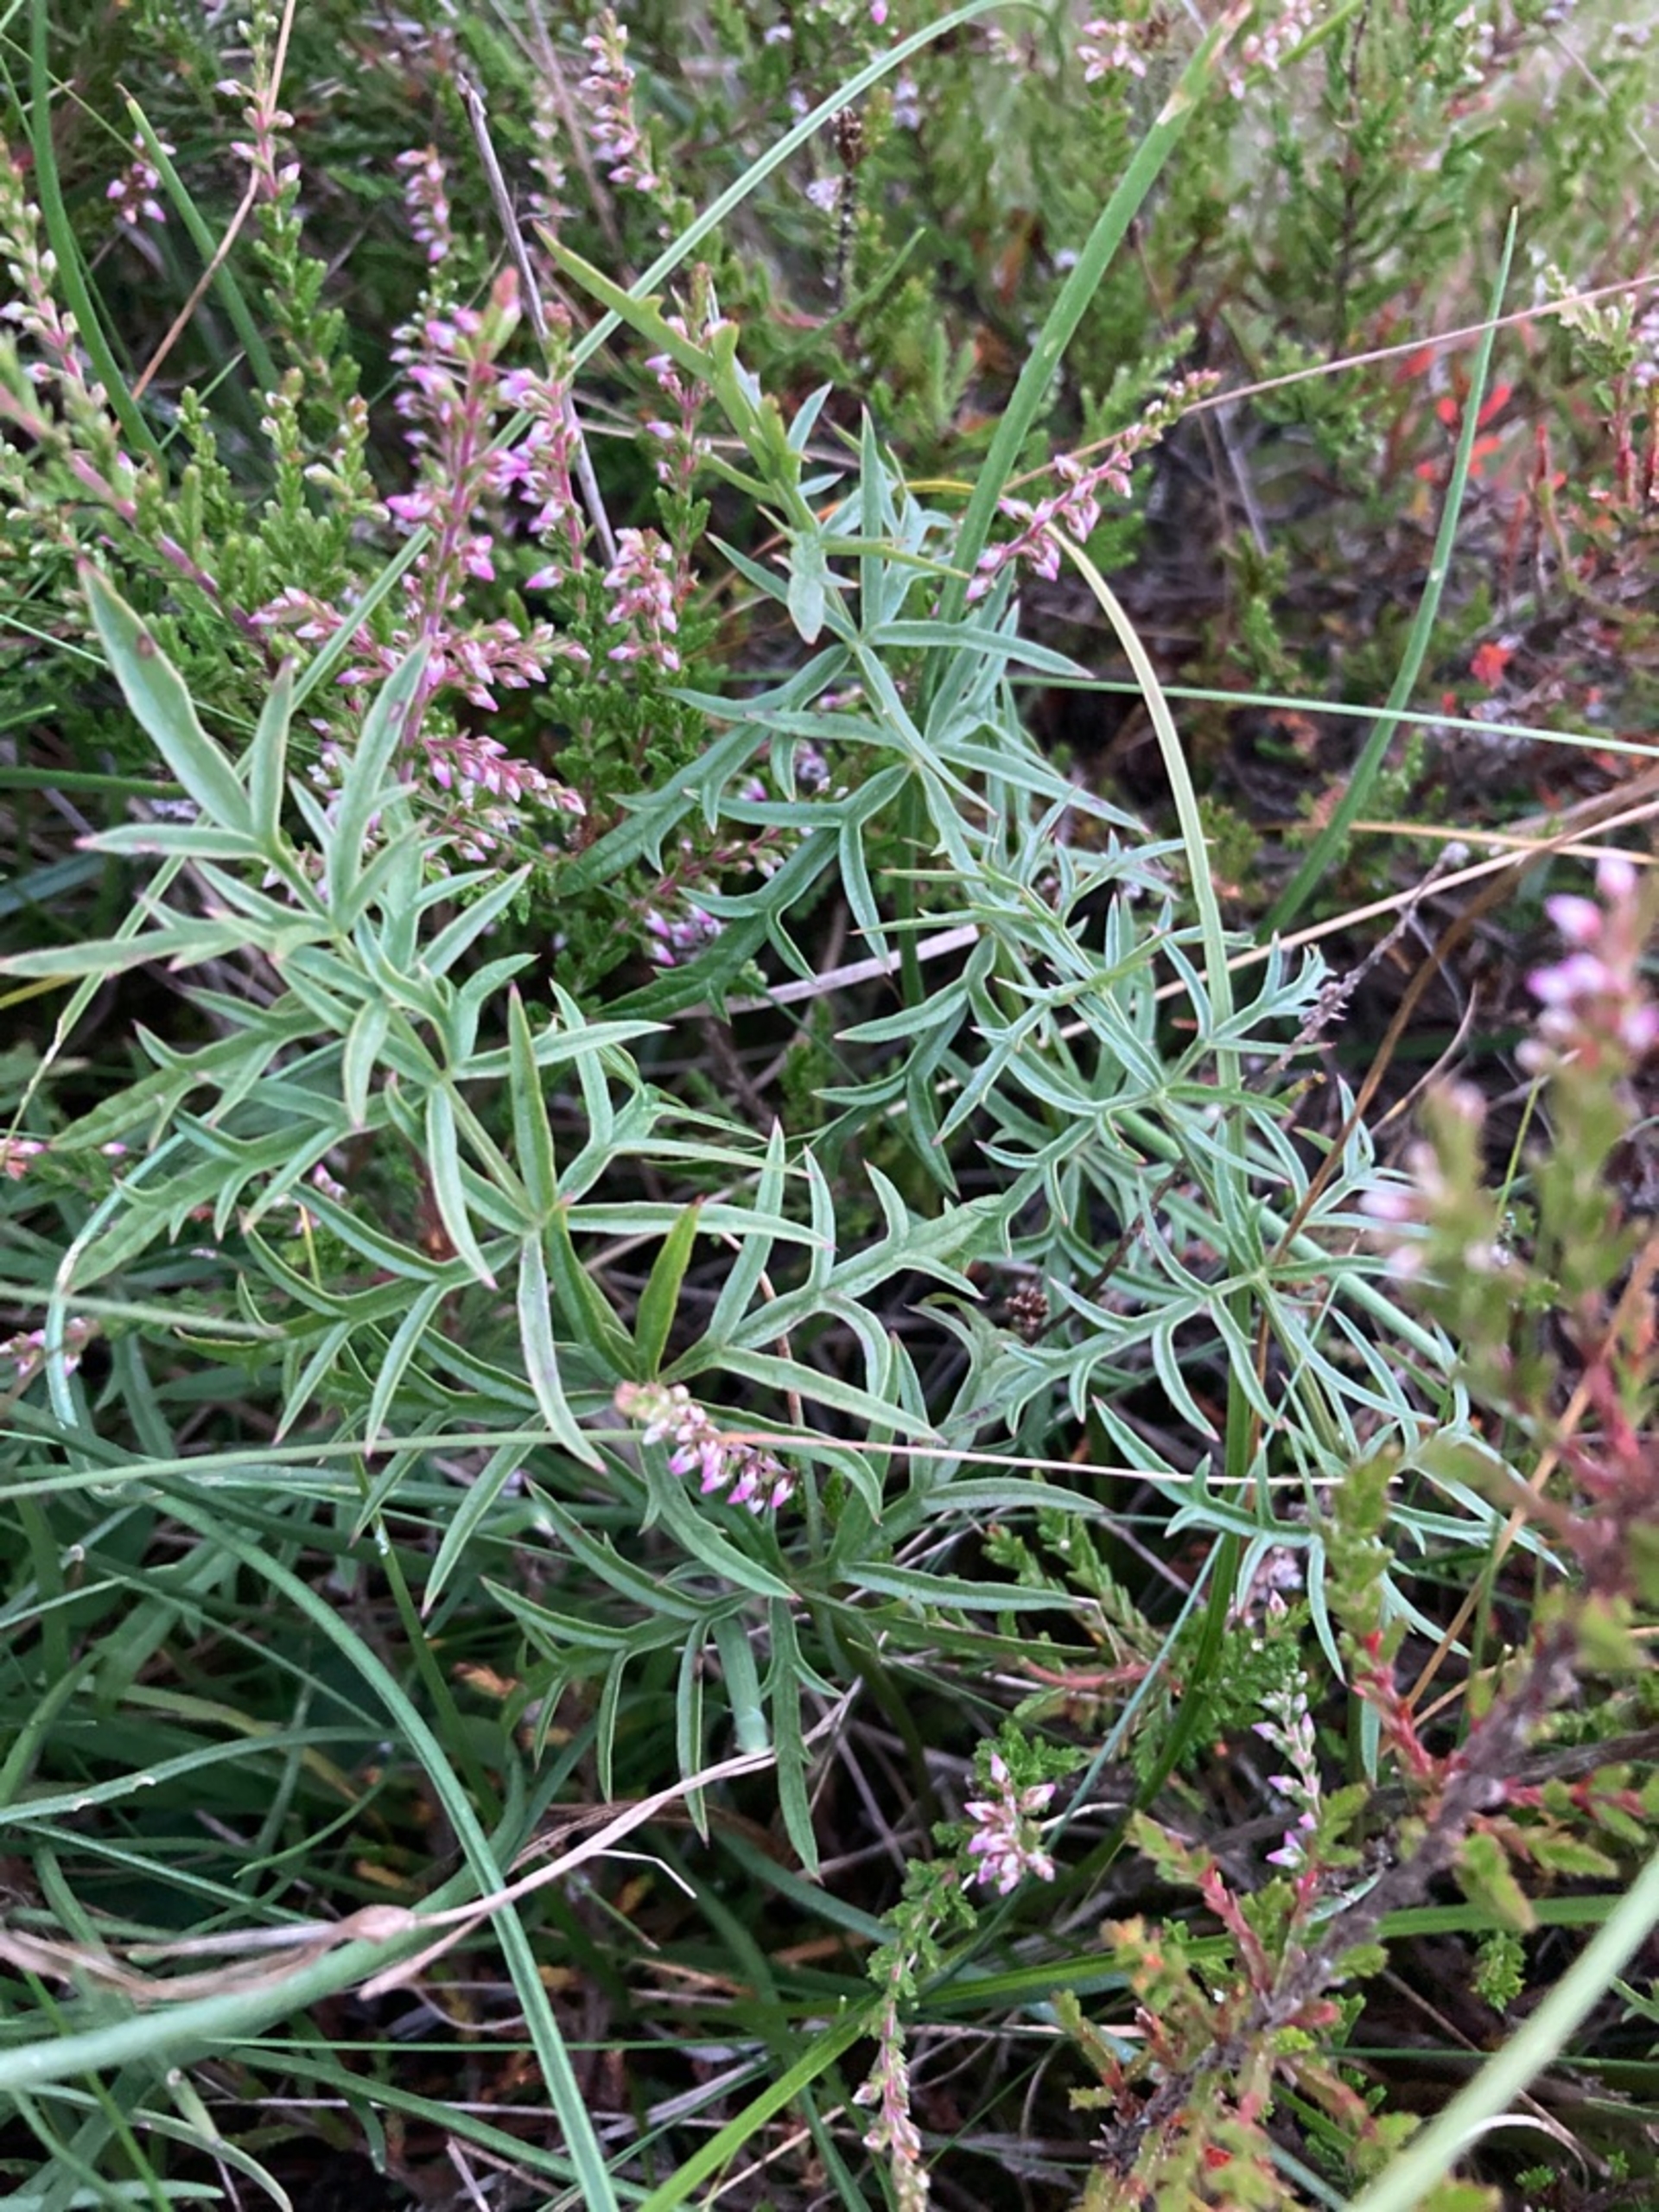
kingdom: Plantae
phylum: Tracheophyta
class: Magnoliopsida
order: Apiales
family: Apiaceae
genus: Pimpinella
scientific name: Pimpinella saxifraga
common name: Almindelig pimpinelle
